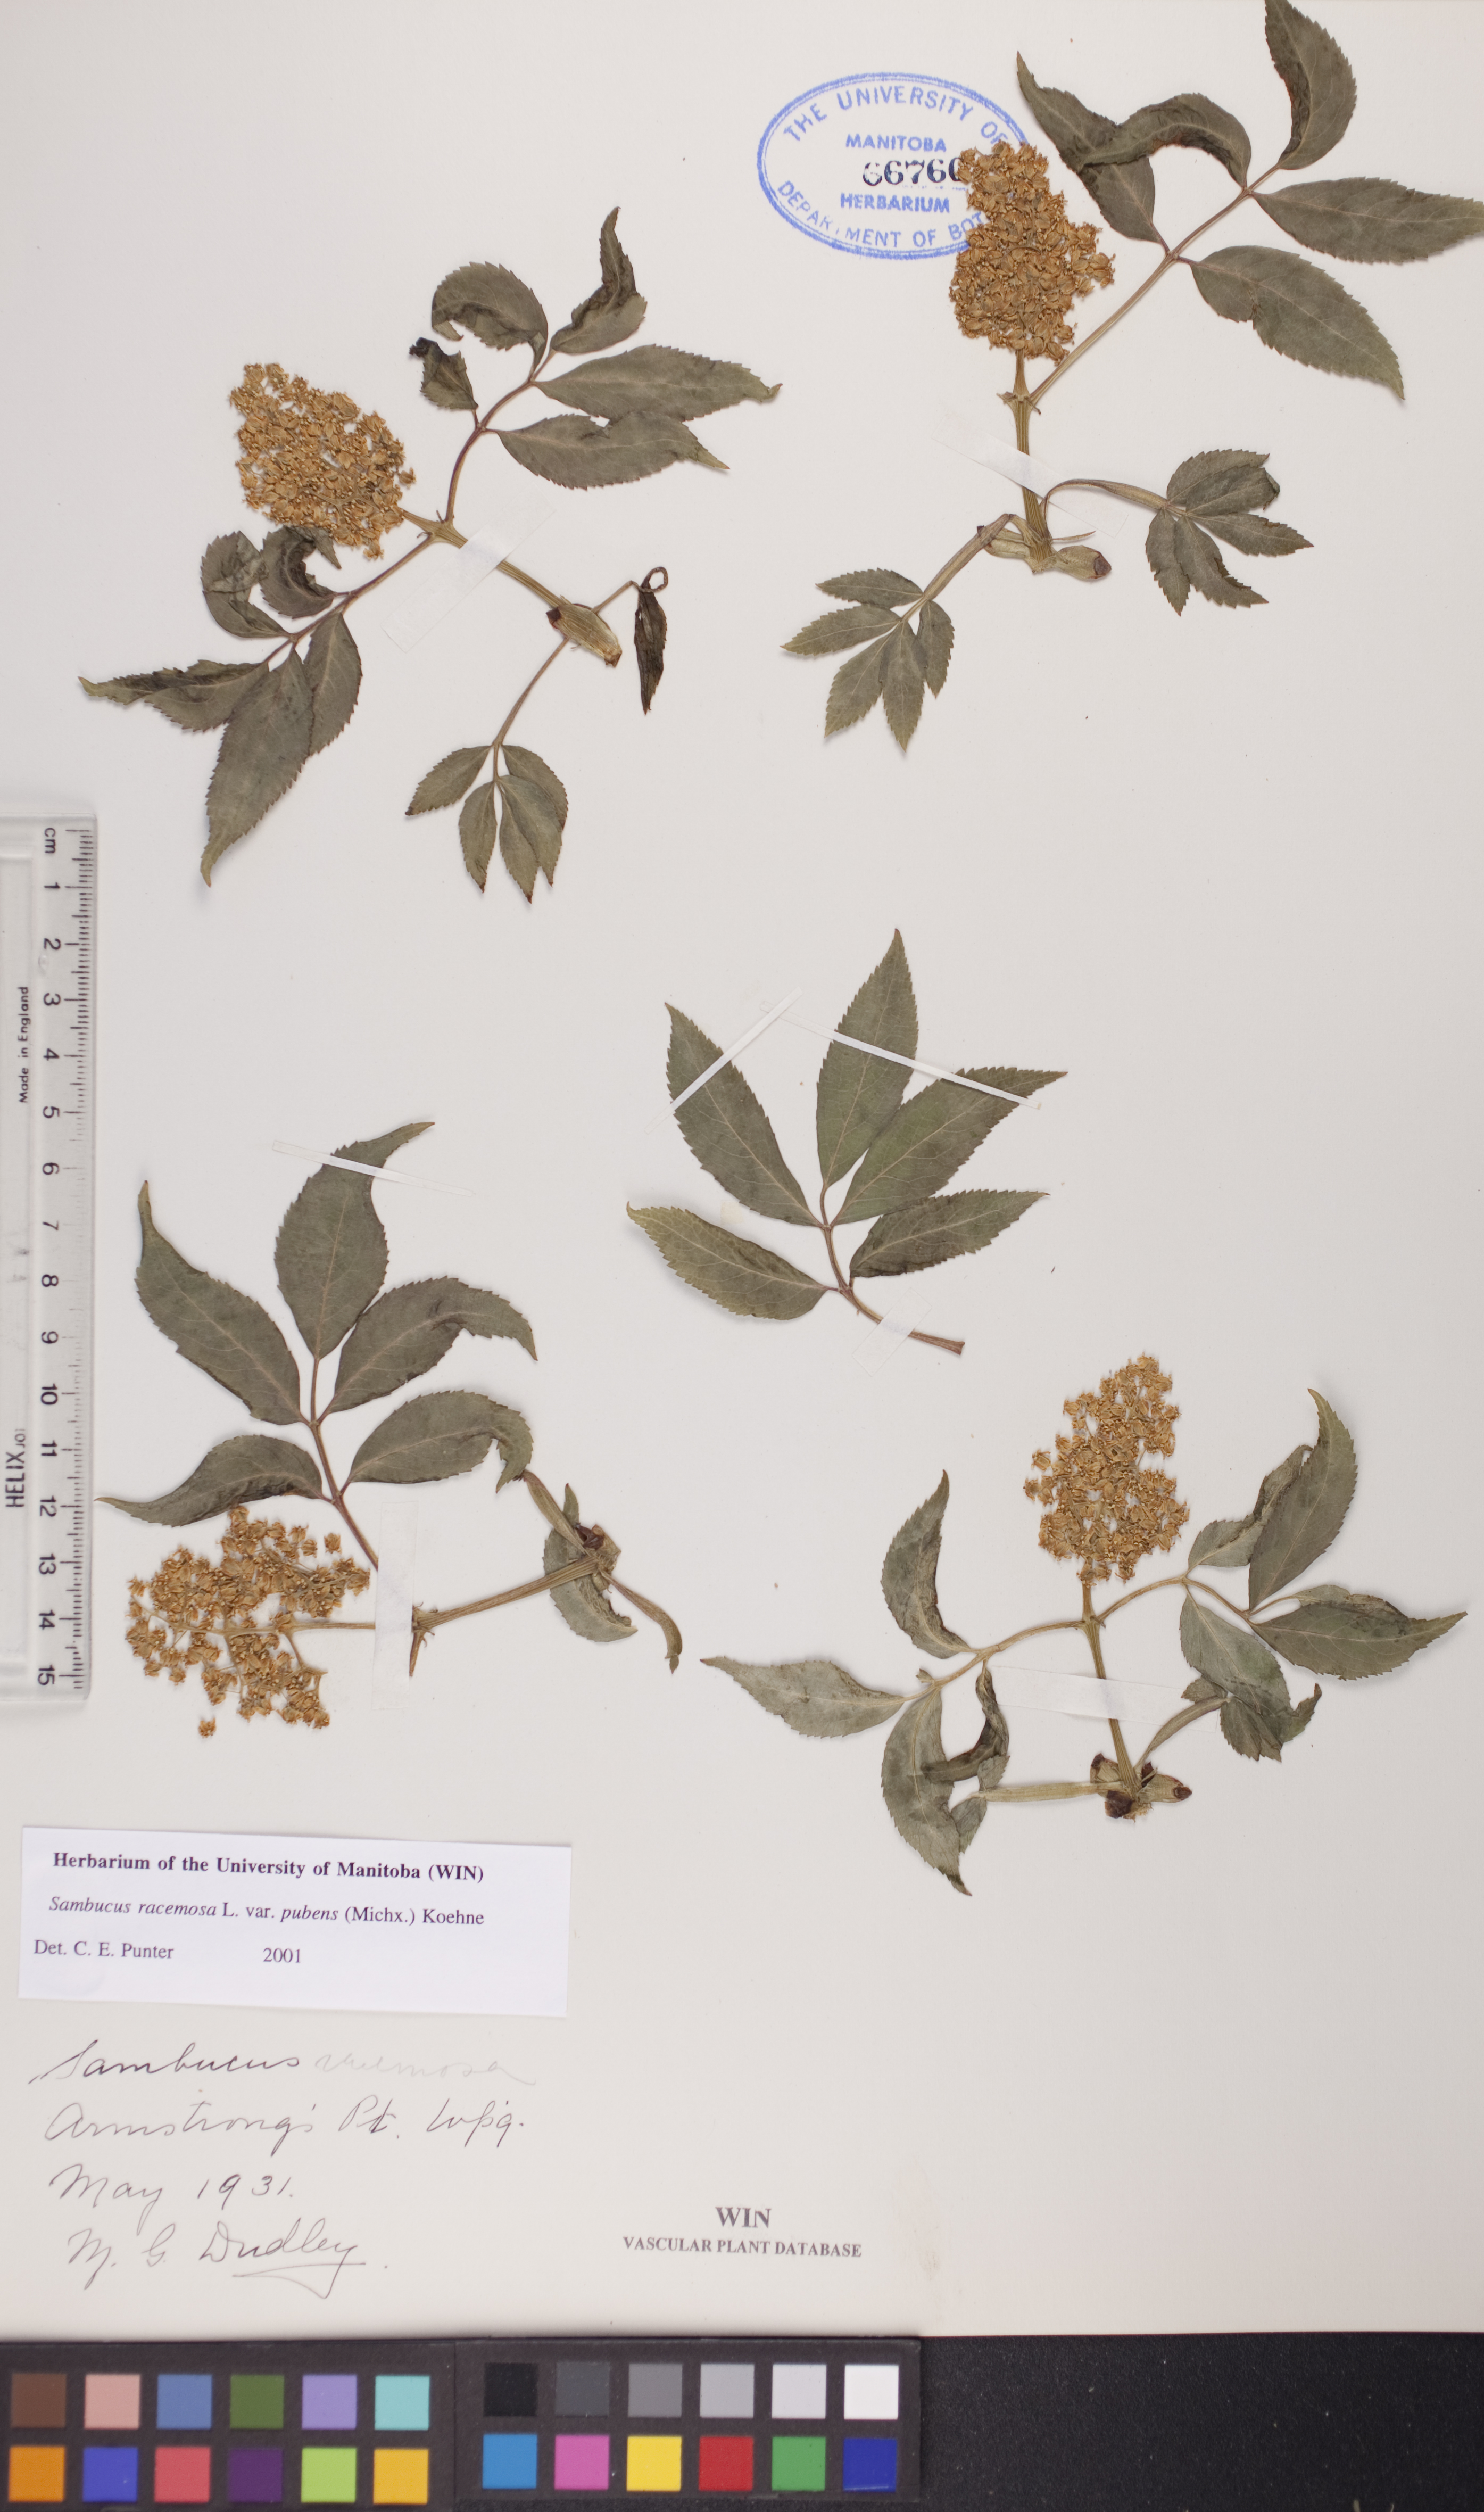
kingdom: Plantae
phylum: Tracheophyta
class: Magnoliopsida
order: Dipsacales
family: Viburnaceae
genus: Sambucus
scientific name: Sambucus racemosa
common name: Red-berried elder
